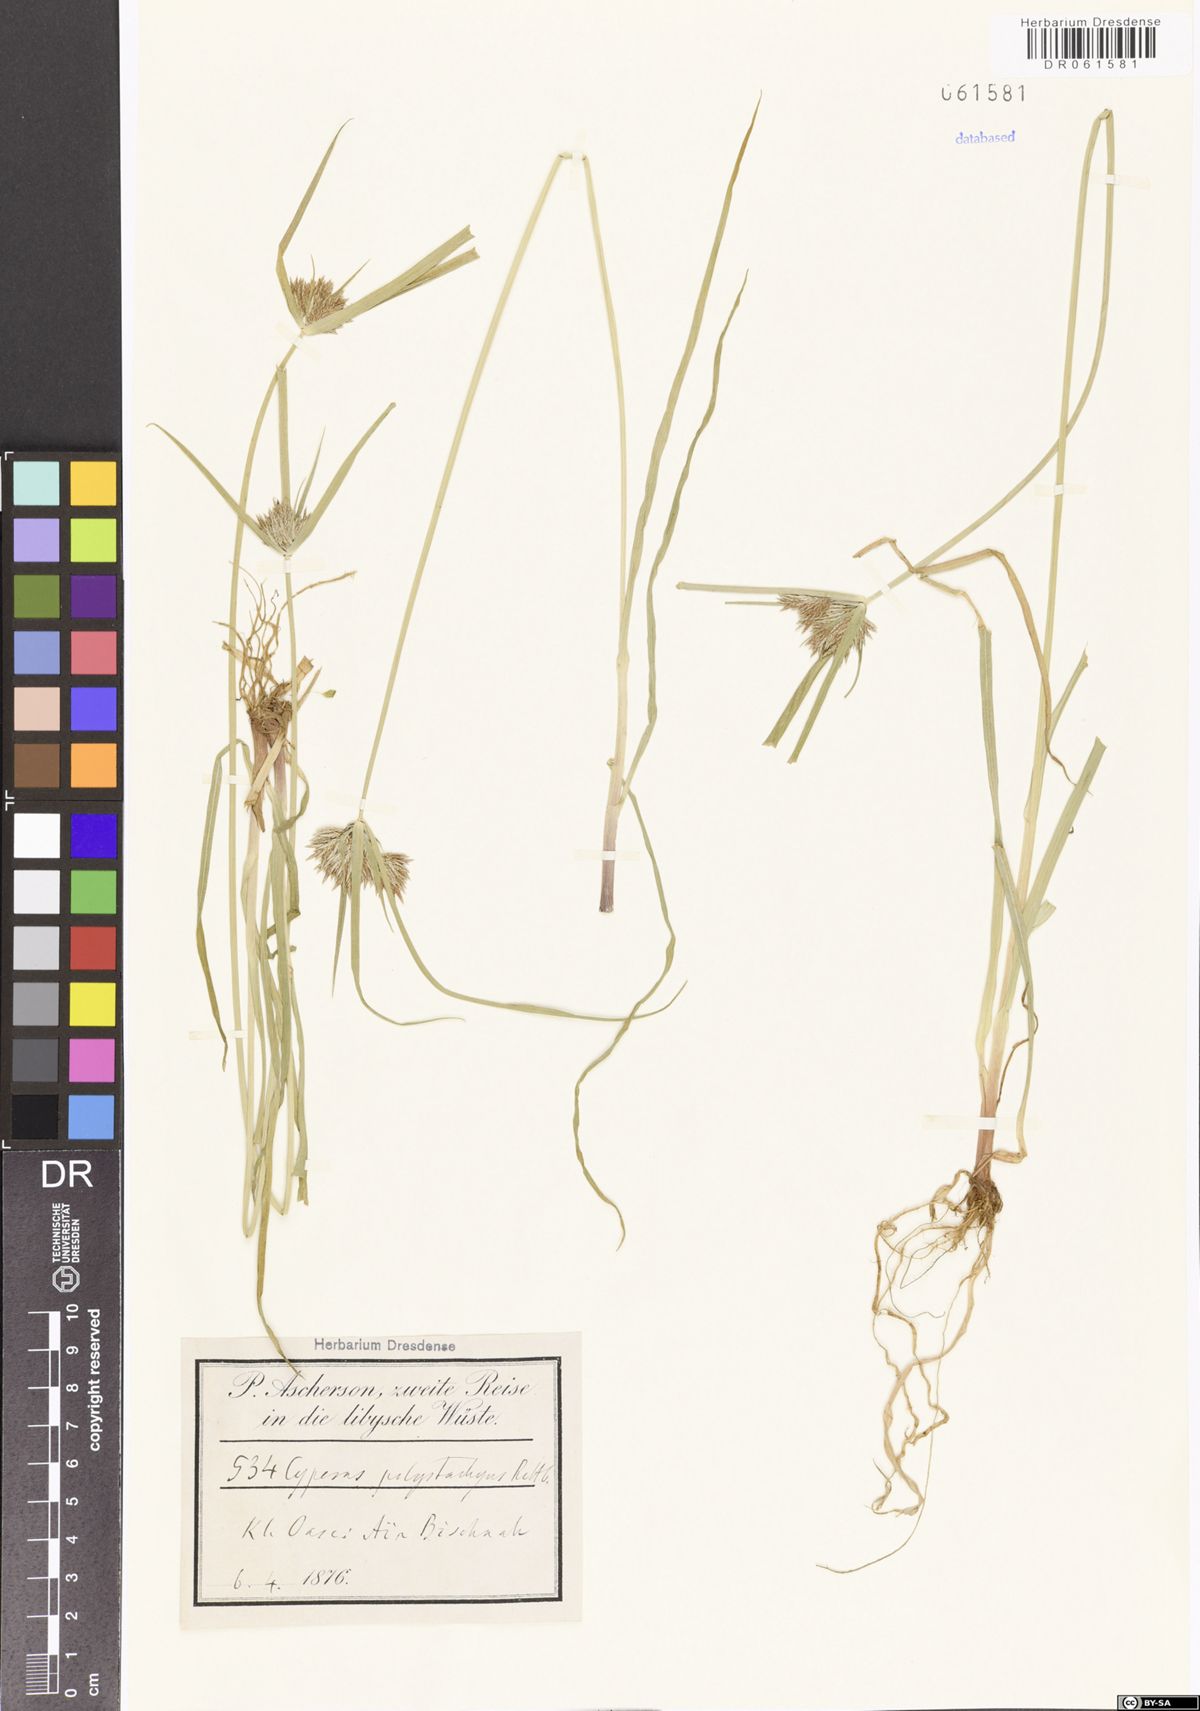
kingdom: Plantae
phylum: Tracheophyta
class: Liliopsida
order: Poales
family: Cyperaceae
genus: Cyperus
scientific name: Cyperus polystachyos
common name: Bunchy flat sedge
